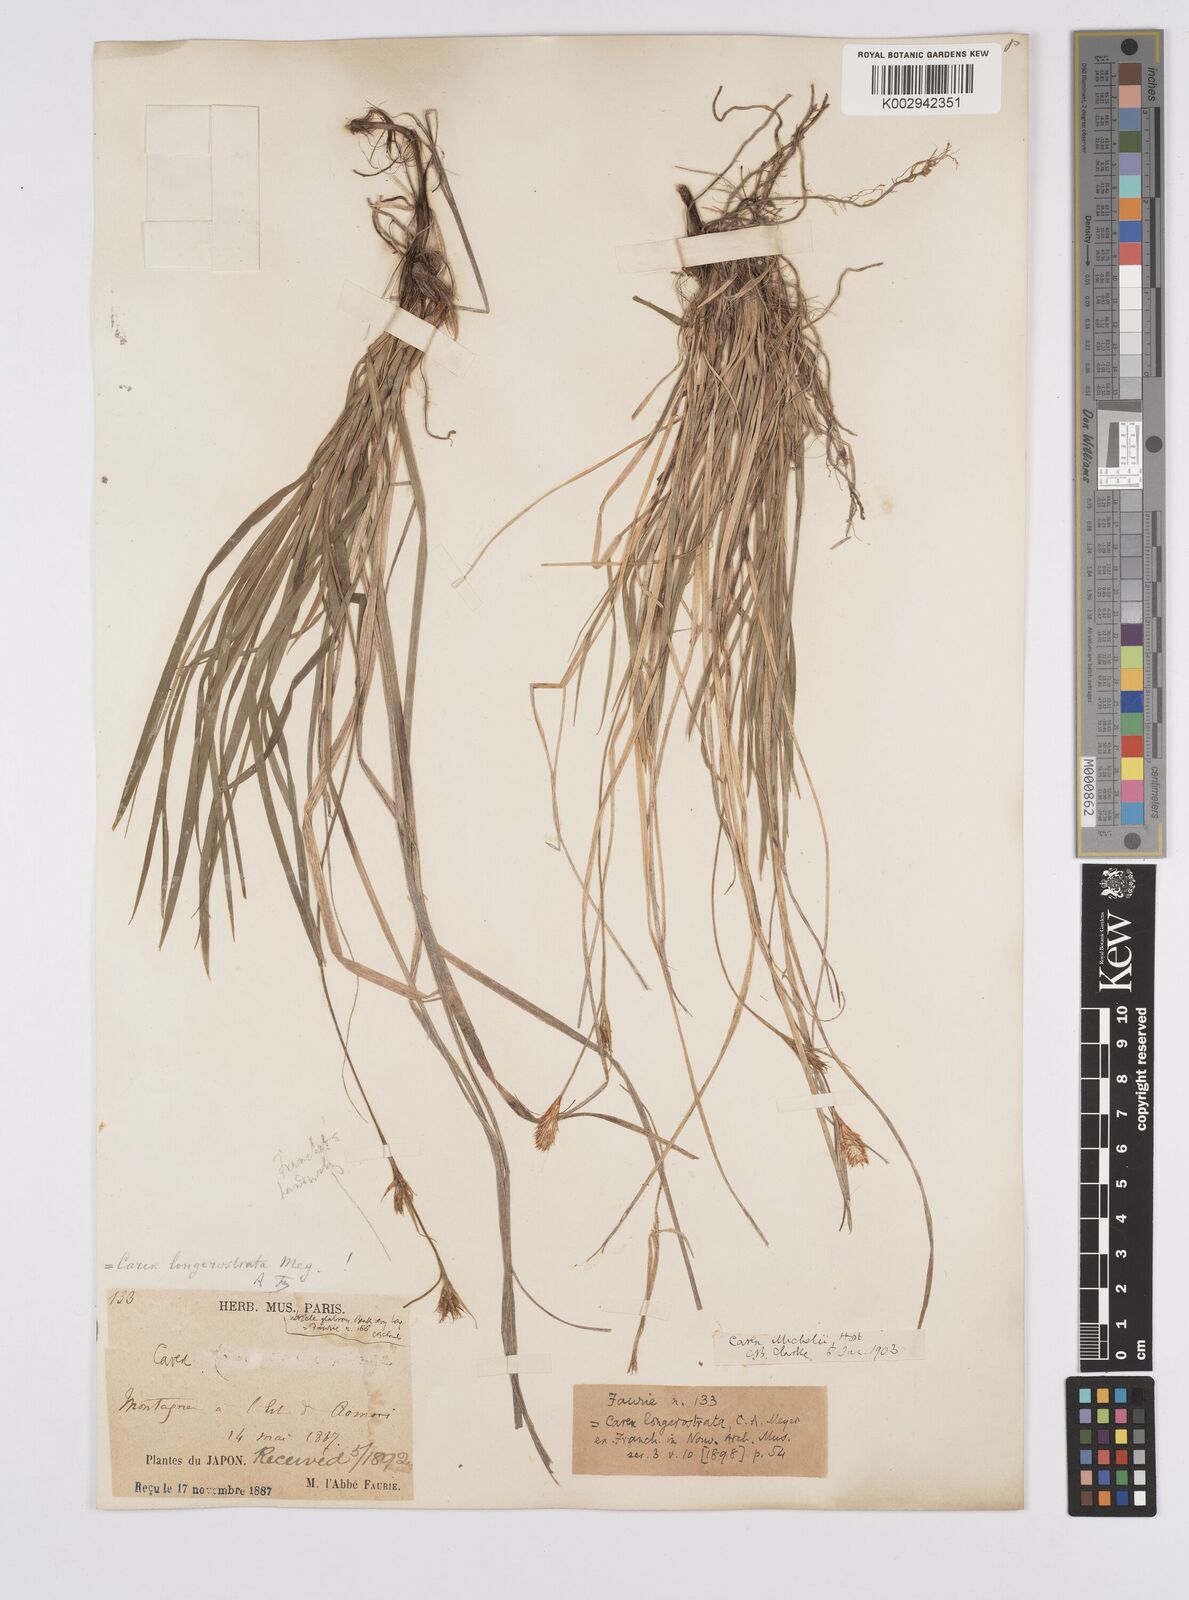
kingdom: Plantae
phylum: Tracheophyta
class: Liliopsida
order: Poales
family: Cyperaceae
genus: Carex
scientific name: Carex michelii
